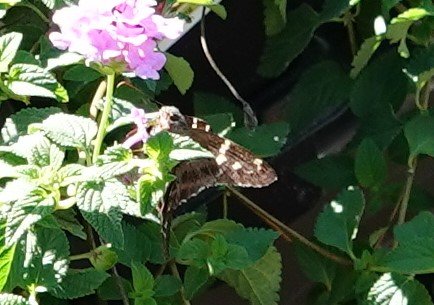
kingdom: Animalia
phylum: Arthropoda
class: Insecta
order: Lepidoptera
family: Hesperiidae
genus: Urbanus
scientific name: Urbanus proteus
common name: Long-tailed Skipper
